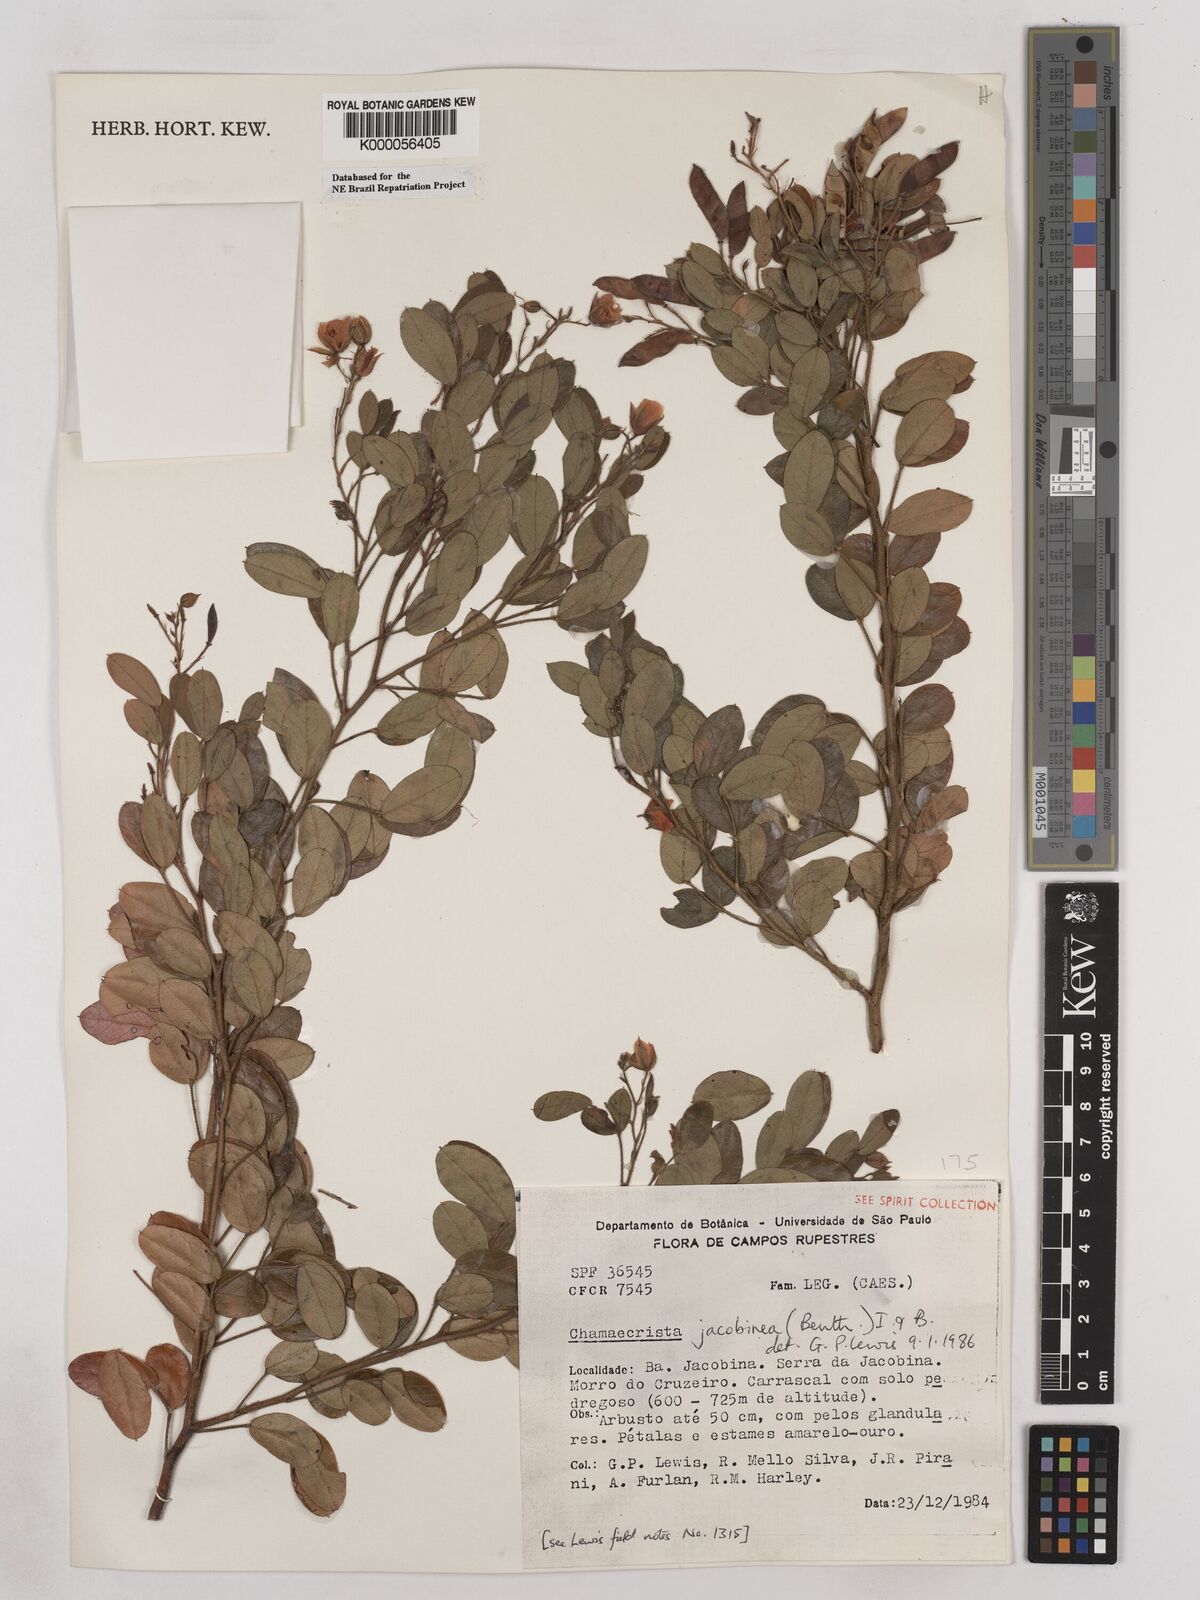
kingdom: Plantae
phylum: Tracheophyta
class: Magnoliopsida
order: Fabales
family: Fabaceae
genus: Chamaecrista
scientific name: Chamaecrista jacobinea
